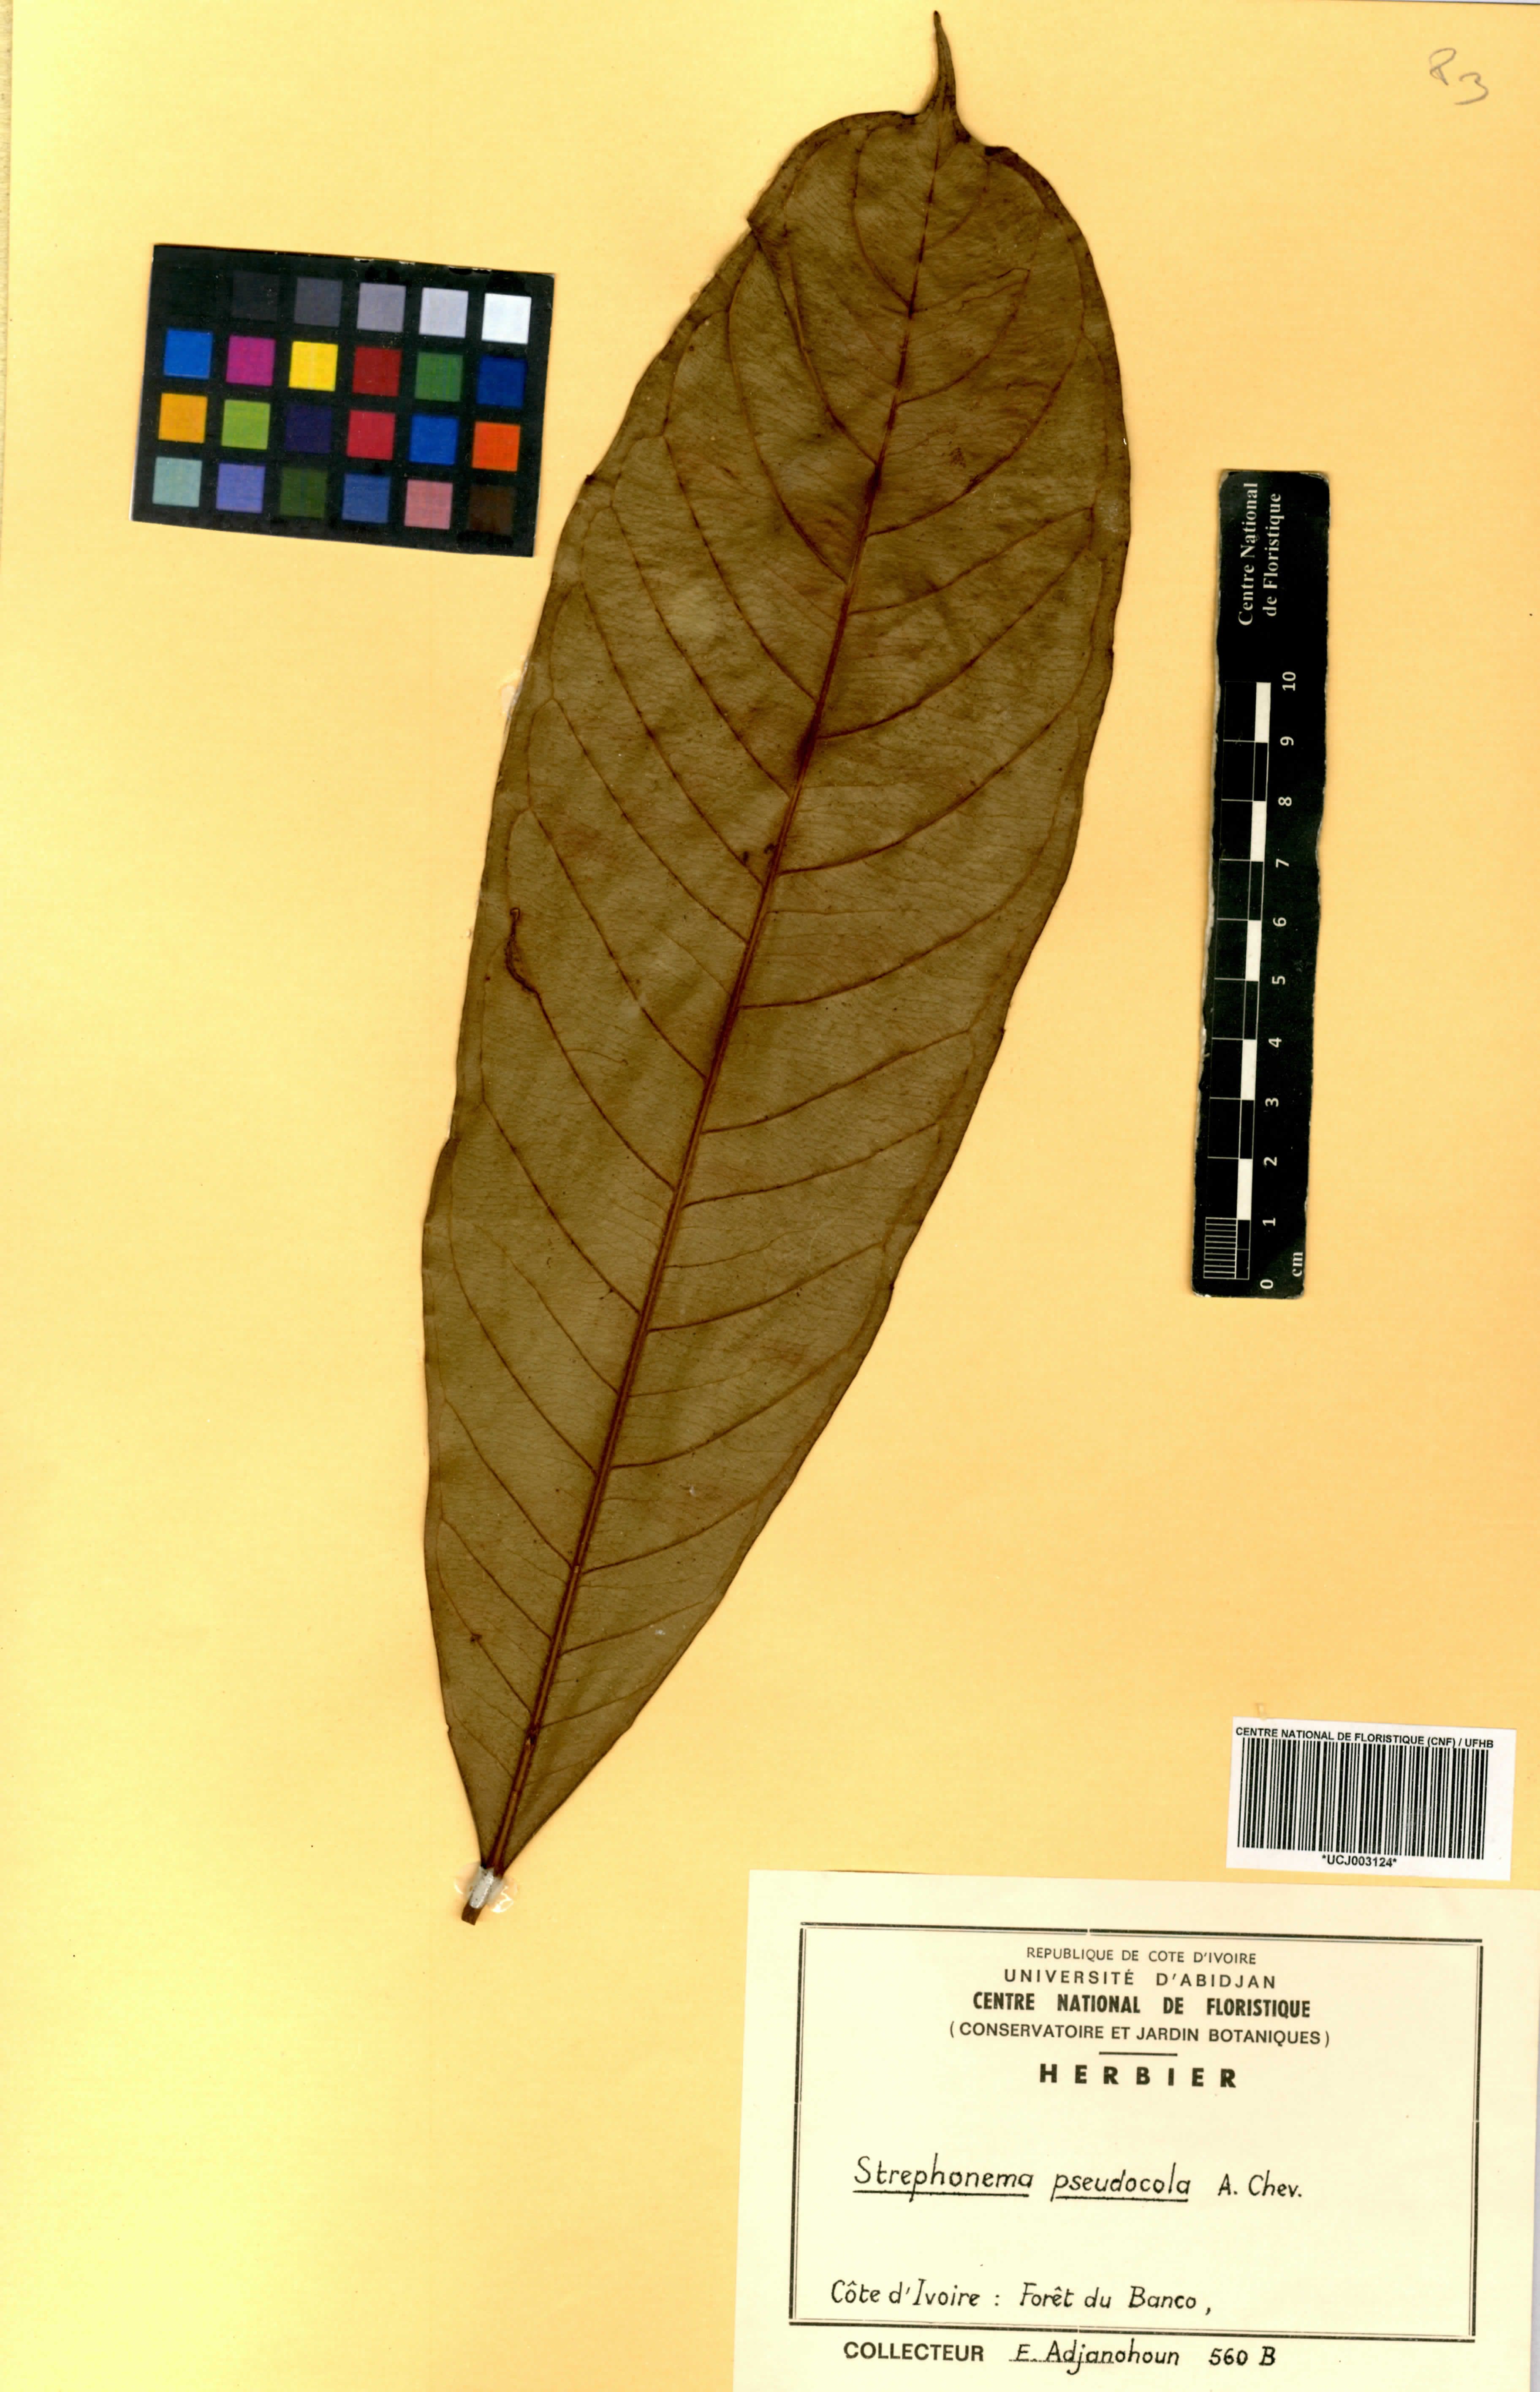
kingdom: Plantae
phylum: Tracheophyta
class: Magnoliopsida
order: Myrtales
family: Combretaceae
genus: Strephonema
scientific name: Strephonema pseudocola
